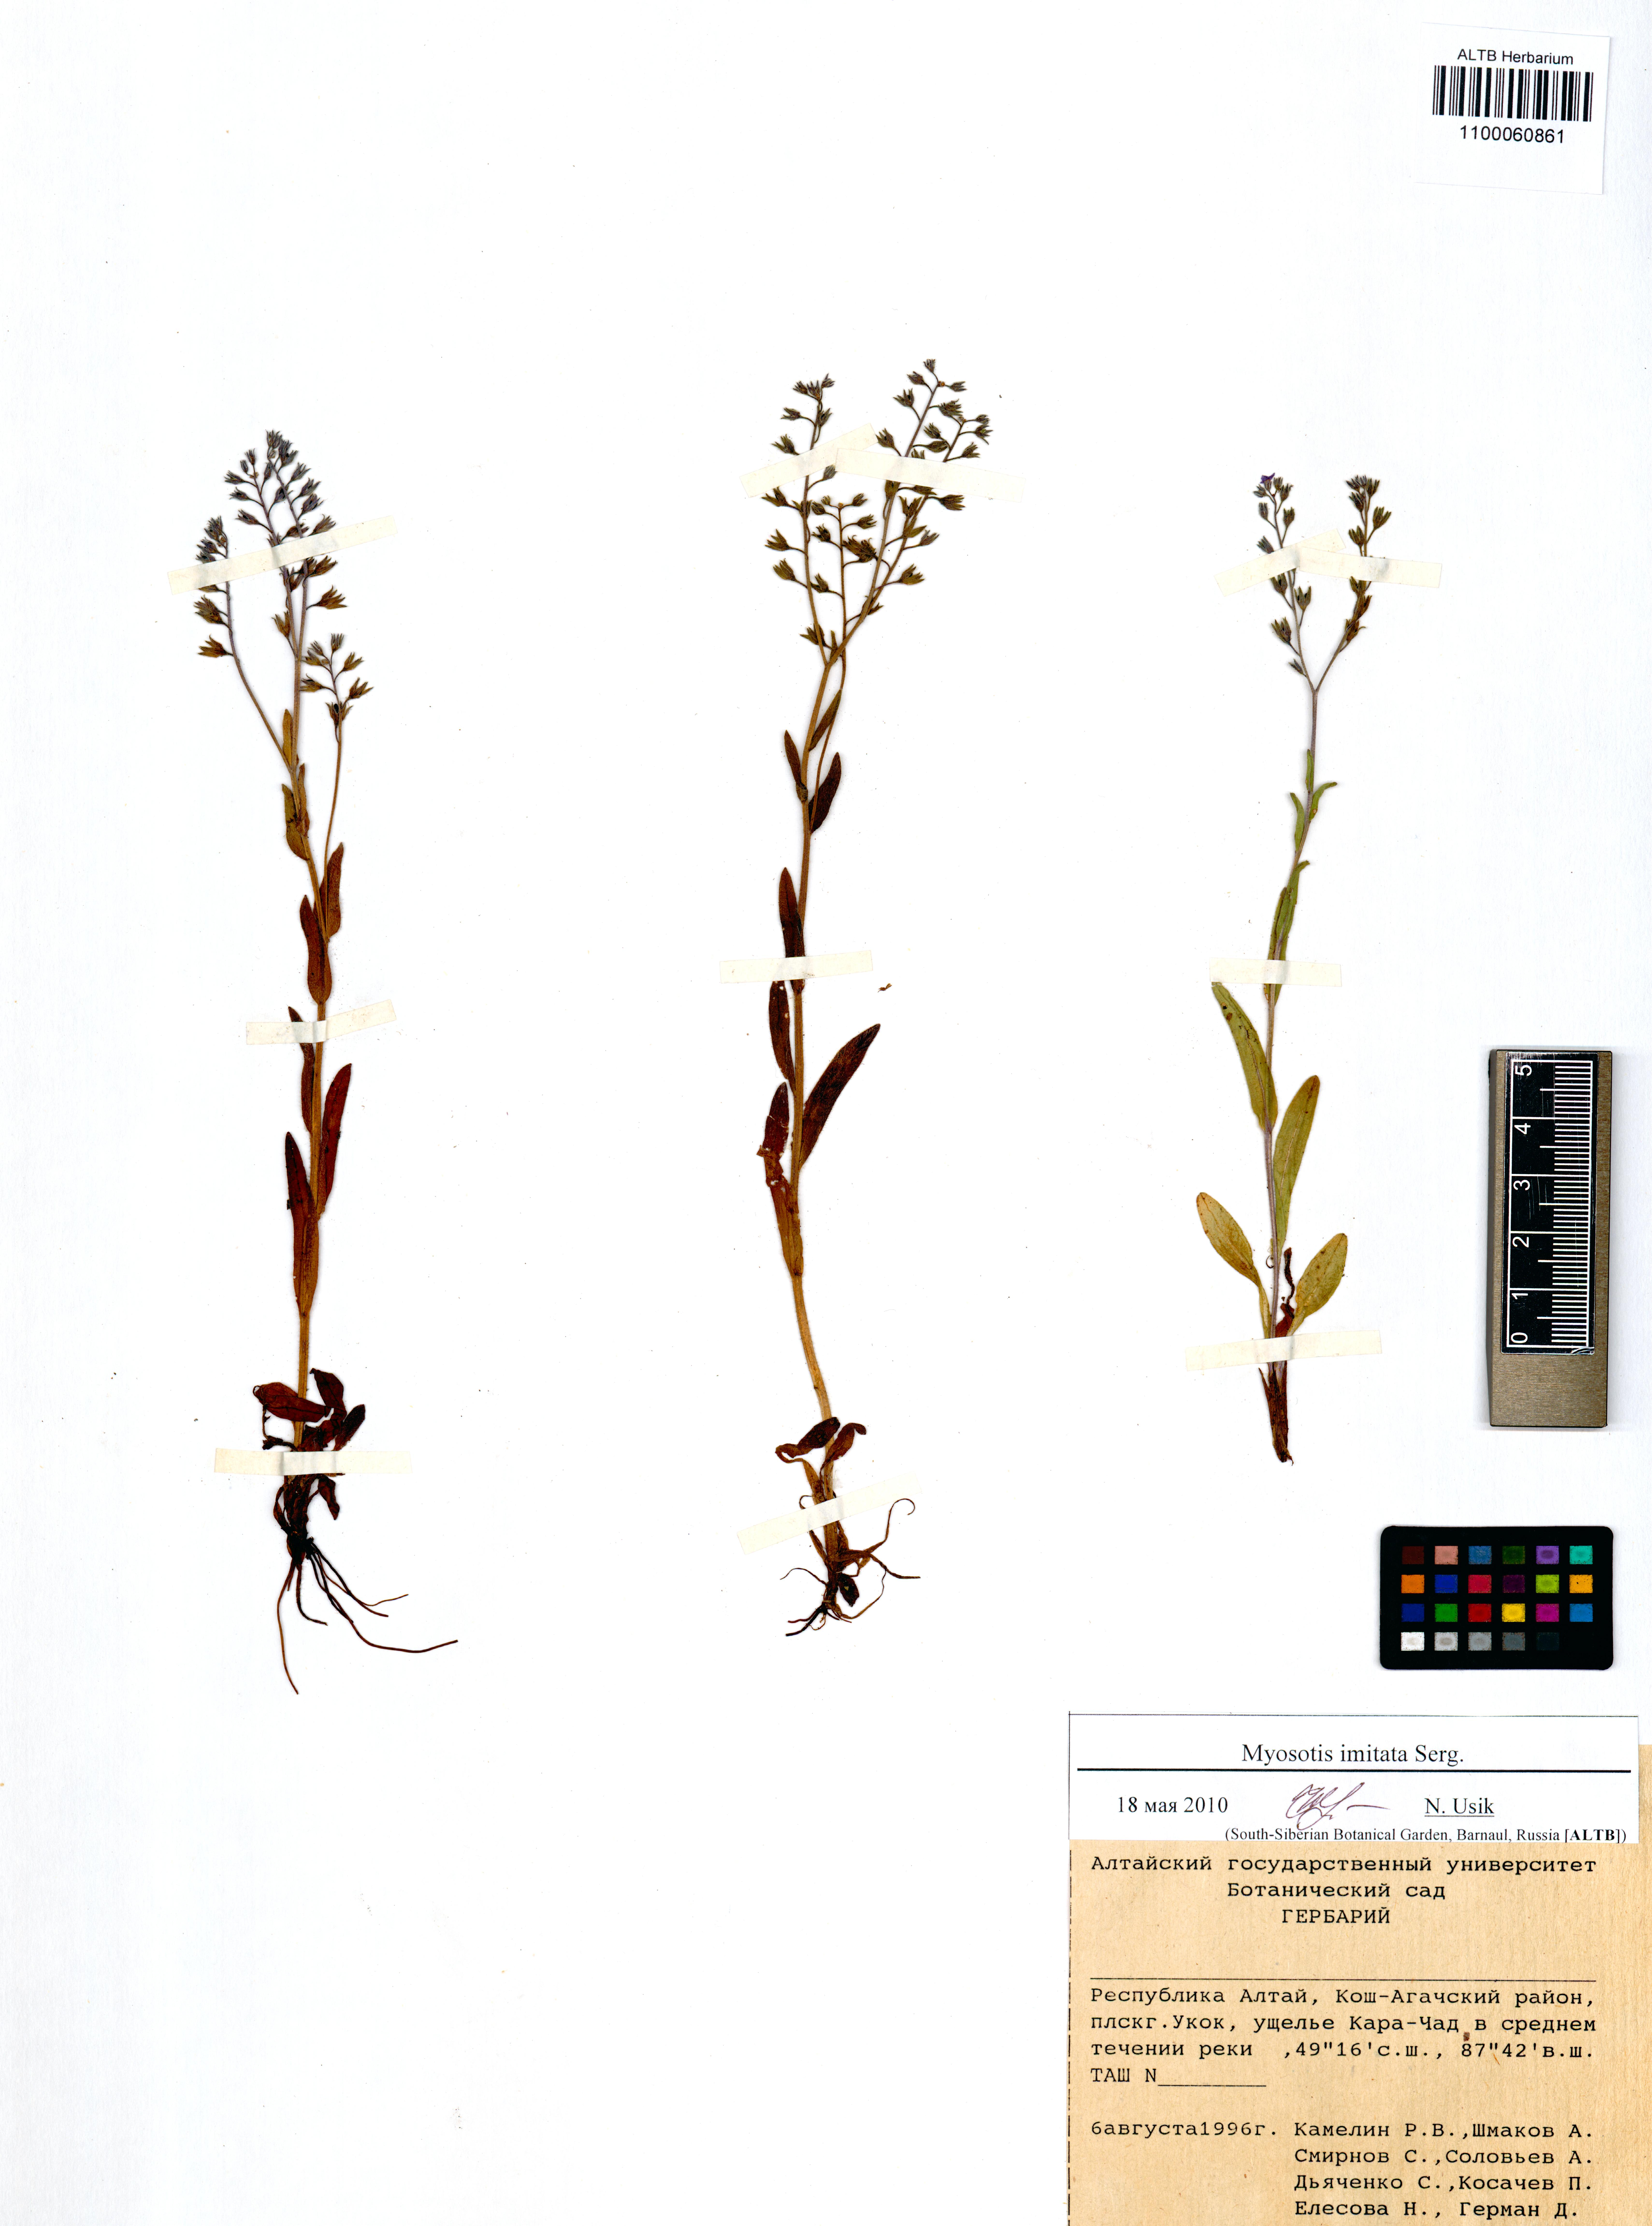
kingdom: Plantae
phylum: Tracheophyta
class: Magnoliopsida
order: Boraginales
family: Boraginaceae
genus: Myosotis
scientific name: Myosotis imitata
